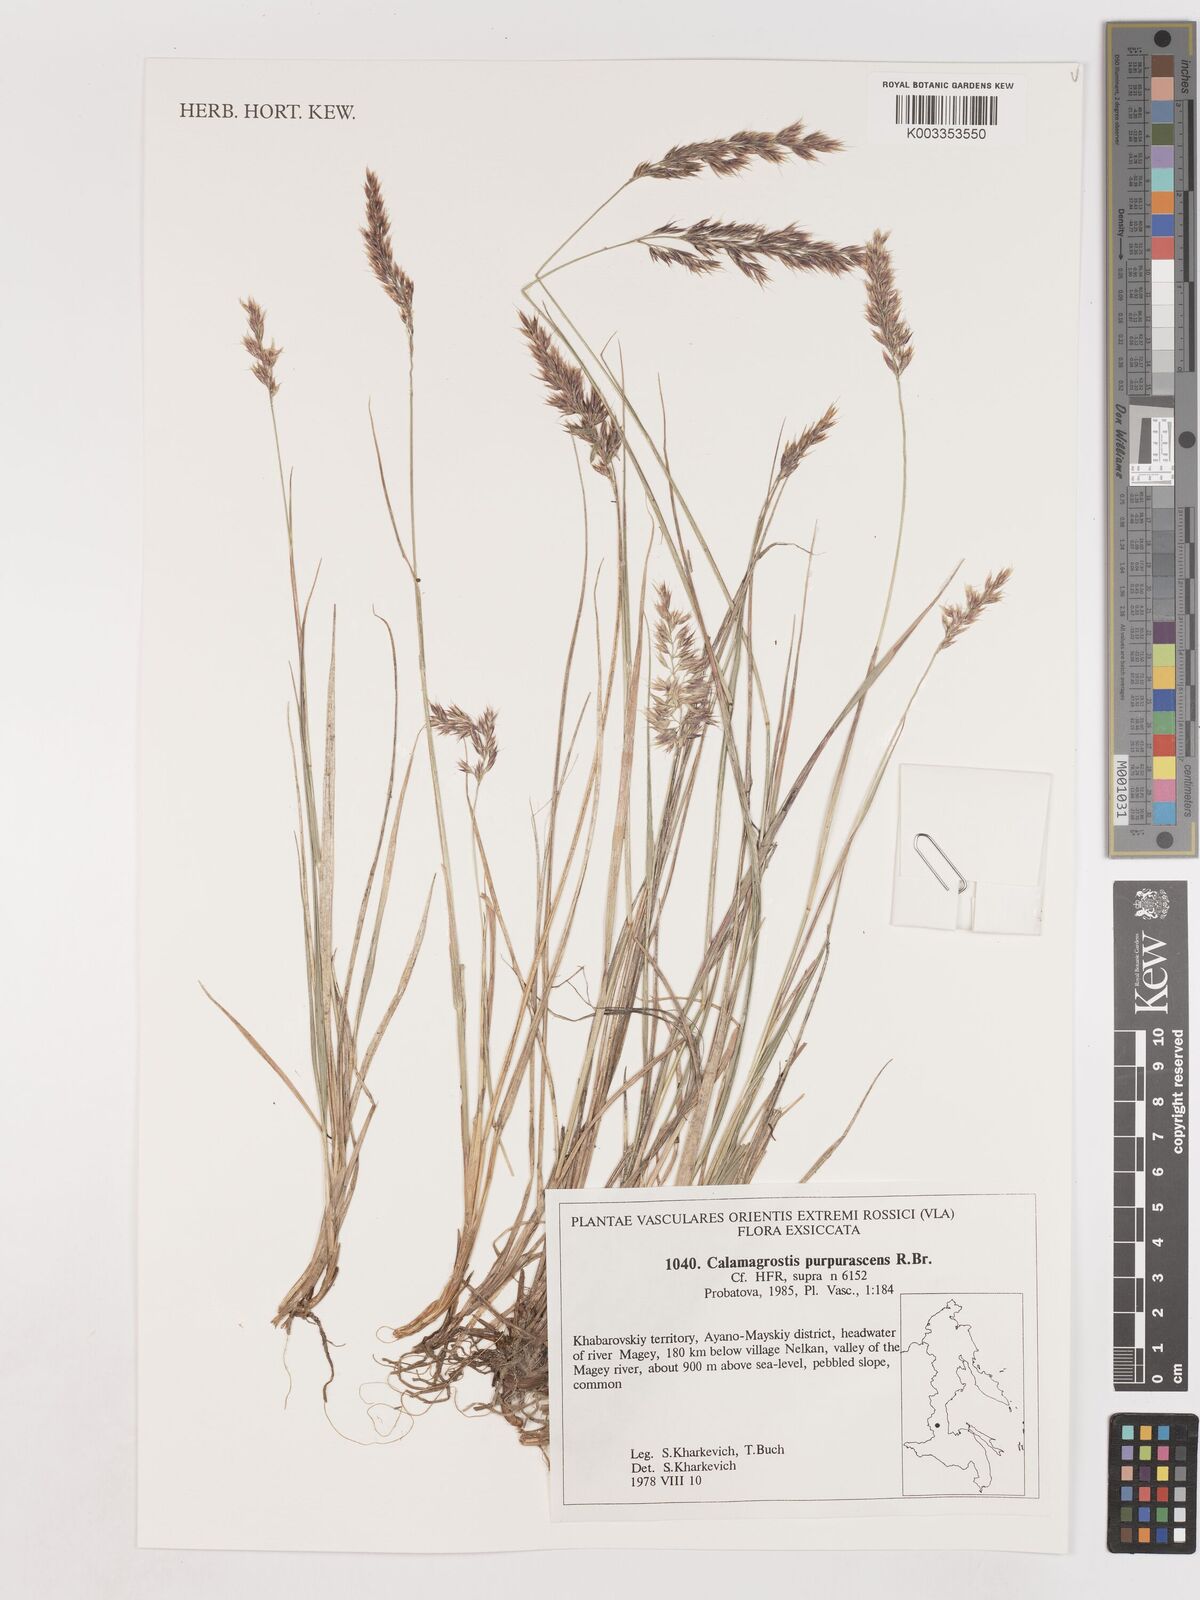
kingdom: Plantae
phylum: Tracheophyta
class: Liliopsida
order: Poales
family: Poaceae
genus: Calamagrostis
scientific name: Calamagrostis purpurascens
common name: Purple reedgrass
